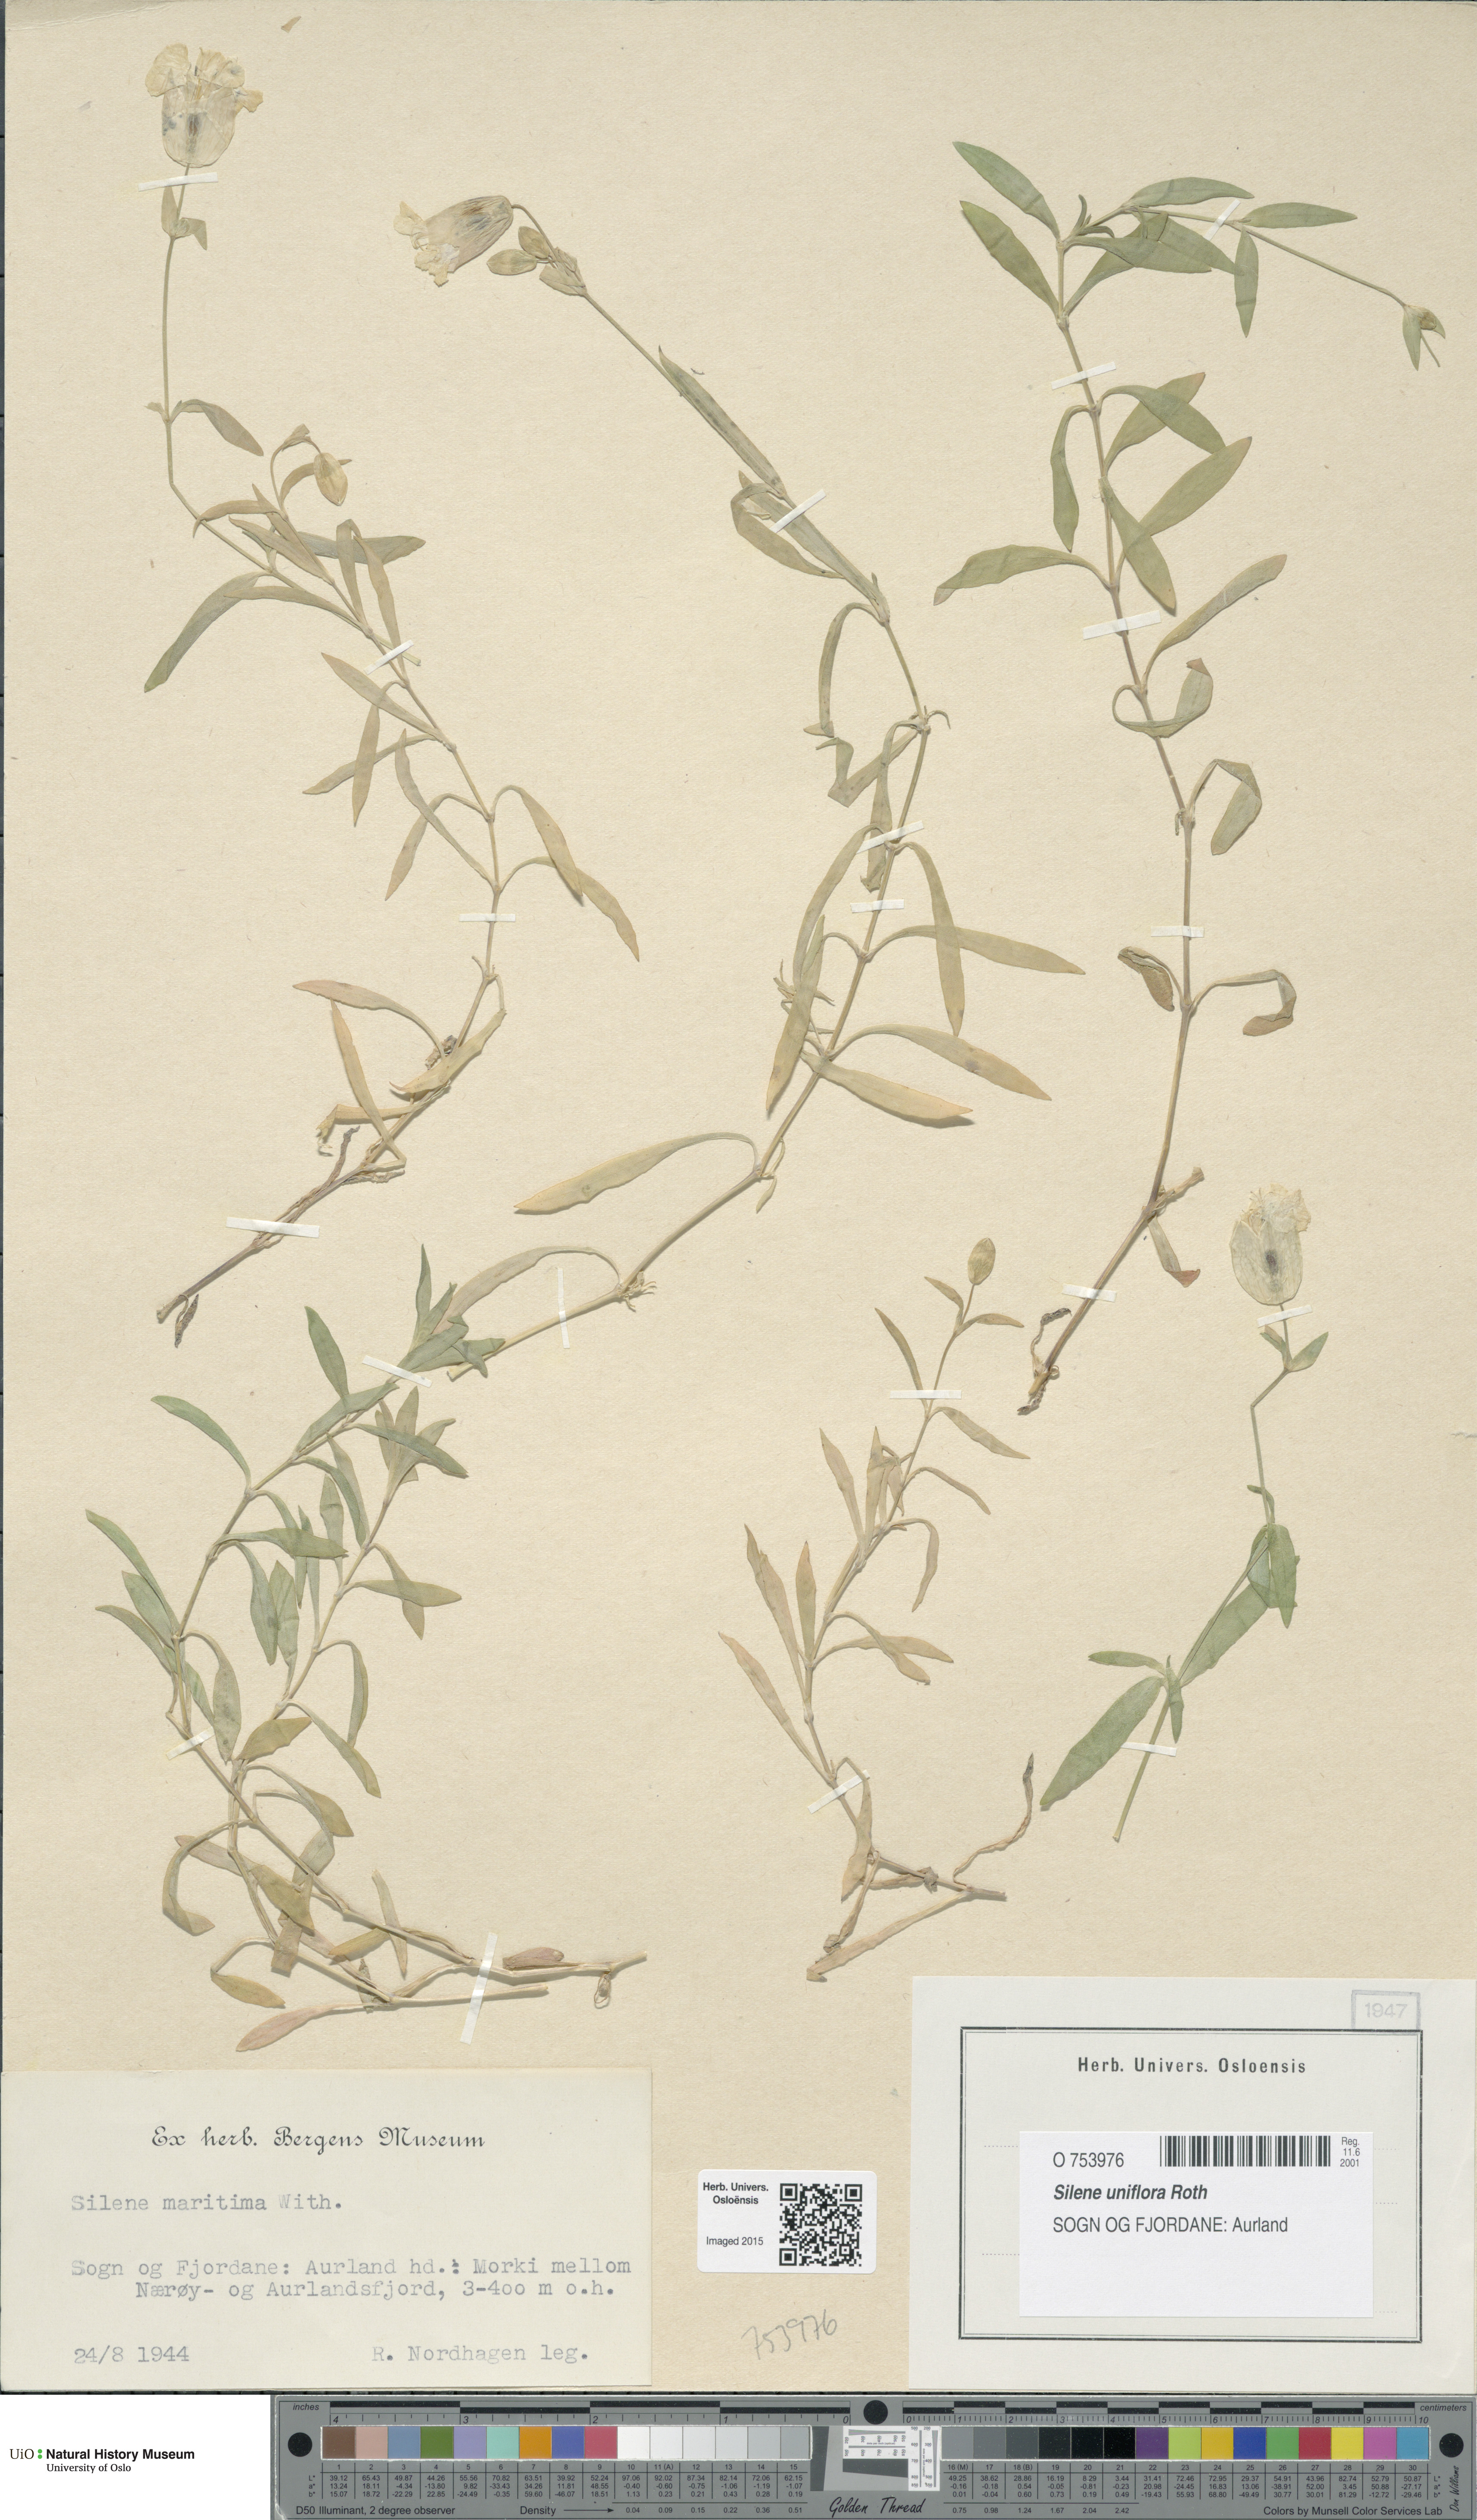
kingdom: Plantae
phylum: Tracheophyta
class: Magnoliopsida
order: Caryophyllales
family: Caryophyllaceae
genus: Silene
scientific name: Silene uniflora
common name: Sea campion
